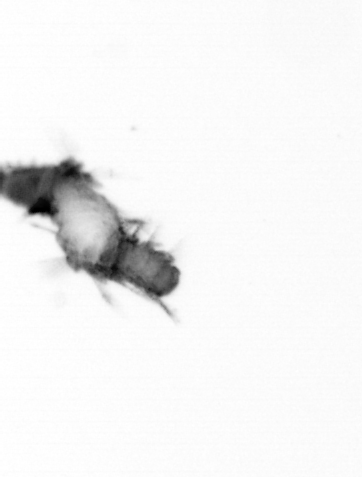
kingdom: Animalia
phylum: Annelida
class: Polychaeta
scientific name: Polychaeta
